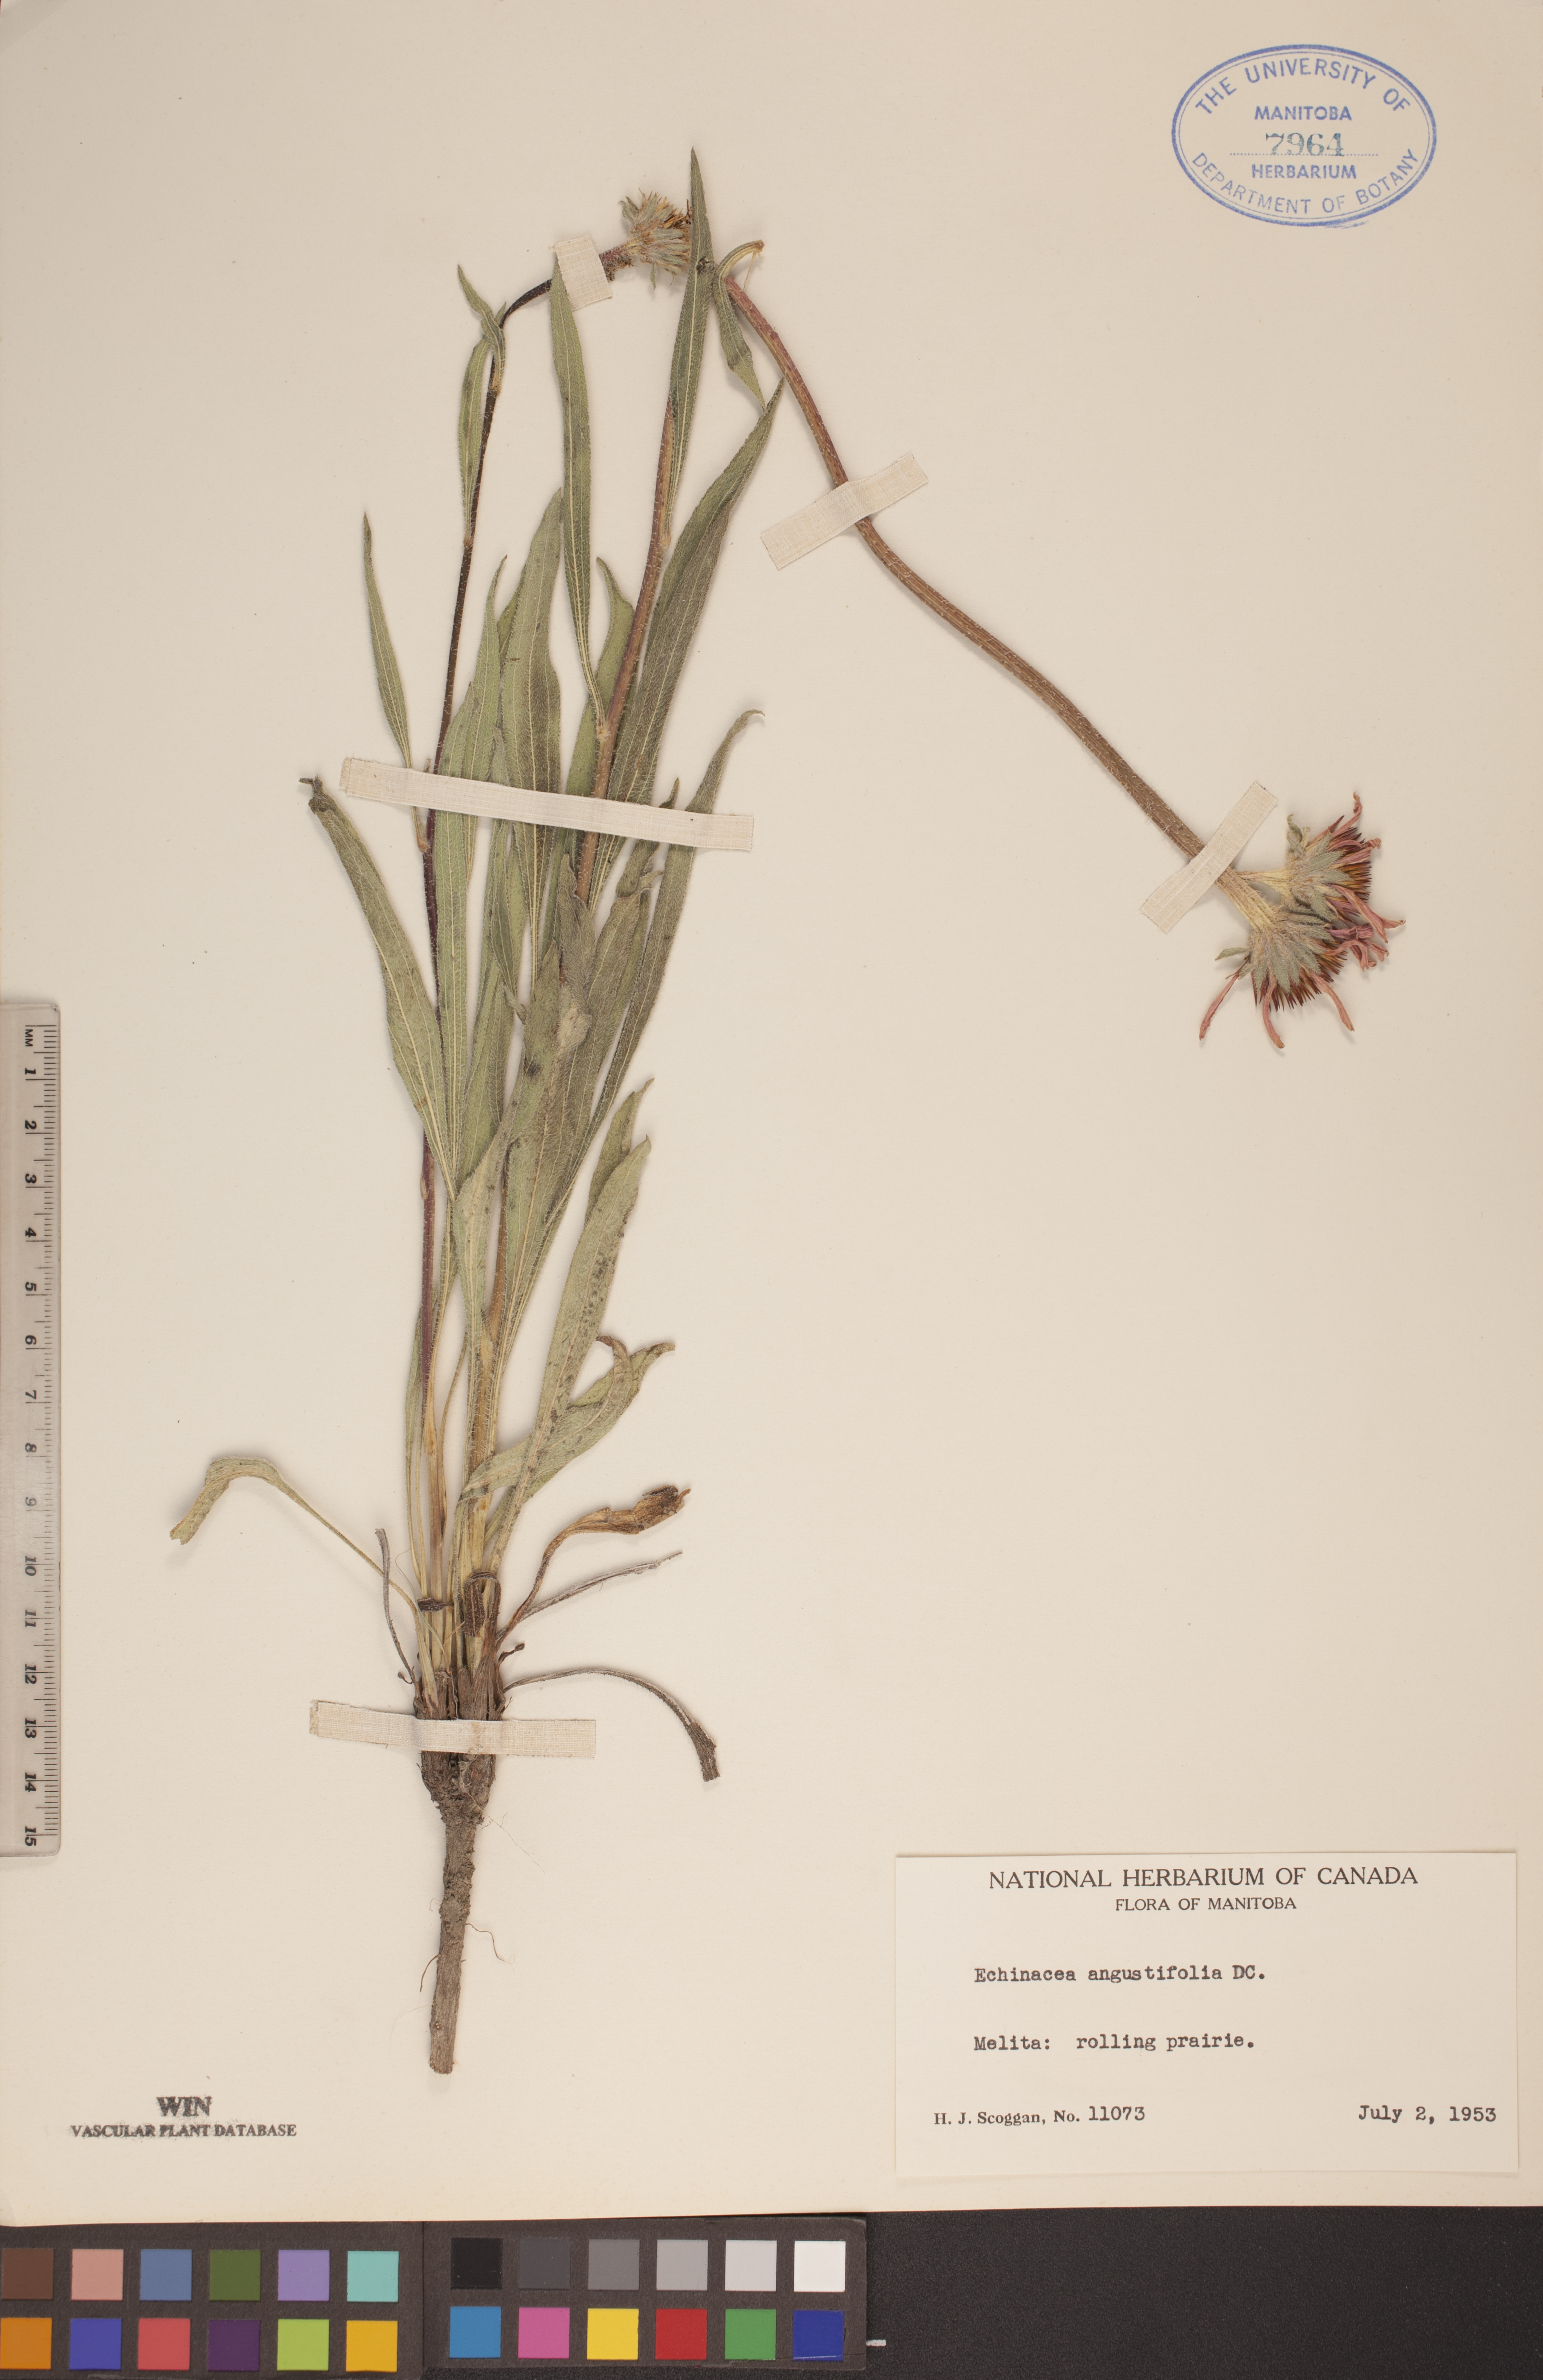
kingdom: Plantae
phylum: Tracheophyta
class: Magnoliopsida
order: Asterales
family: Asteraceae
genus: Echinacea
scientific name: Echinacea angustifolia
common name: Black-sampson echinacea
